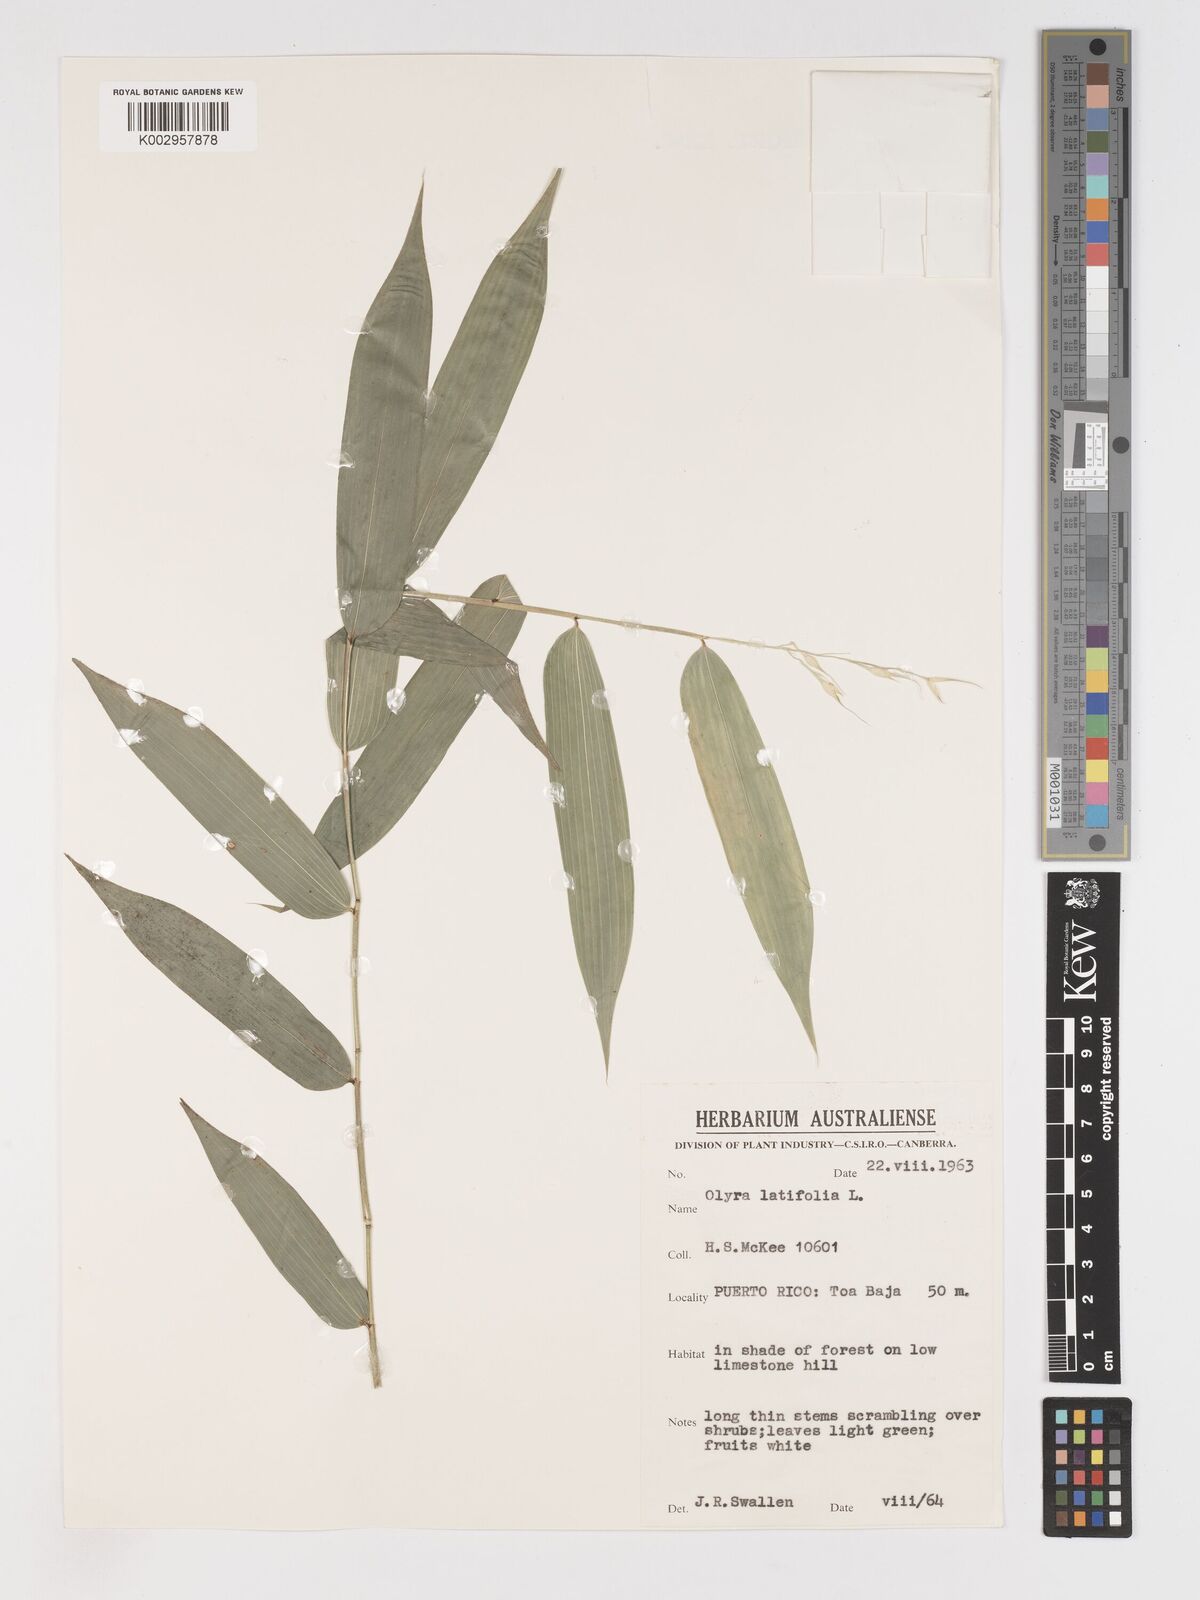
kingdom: Plantae
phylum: Tracheophyta
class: Liliopsida
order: Poales
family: Poaceae
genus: Olyra
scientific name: Olyra latifolia
